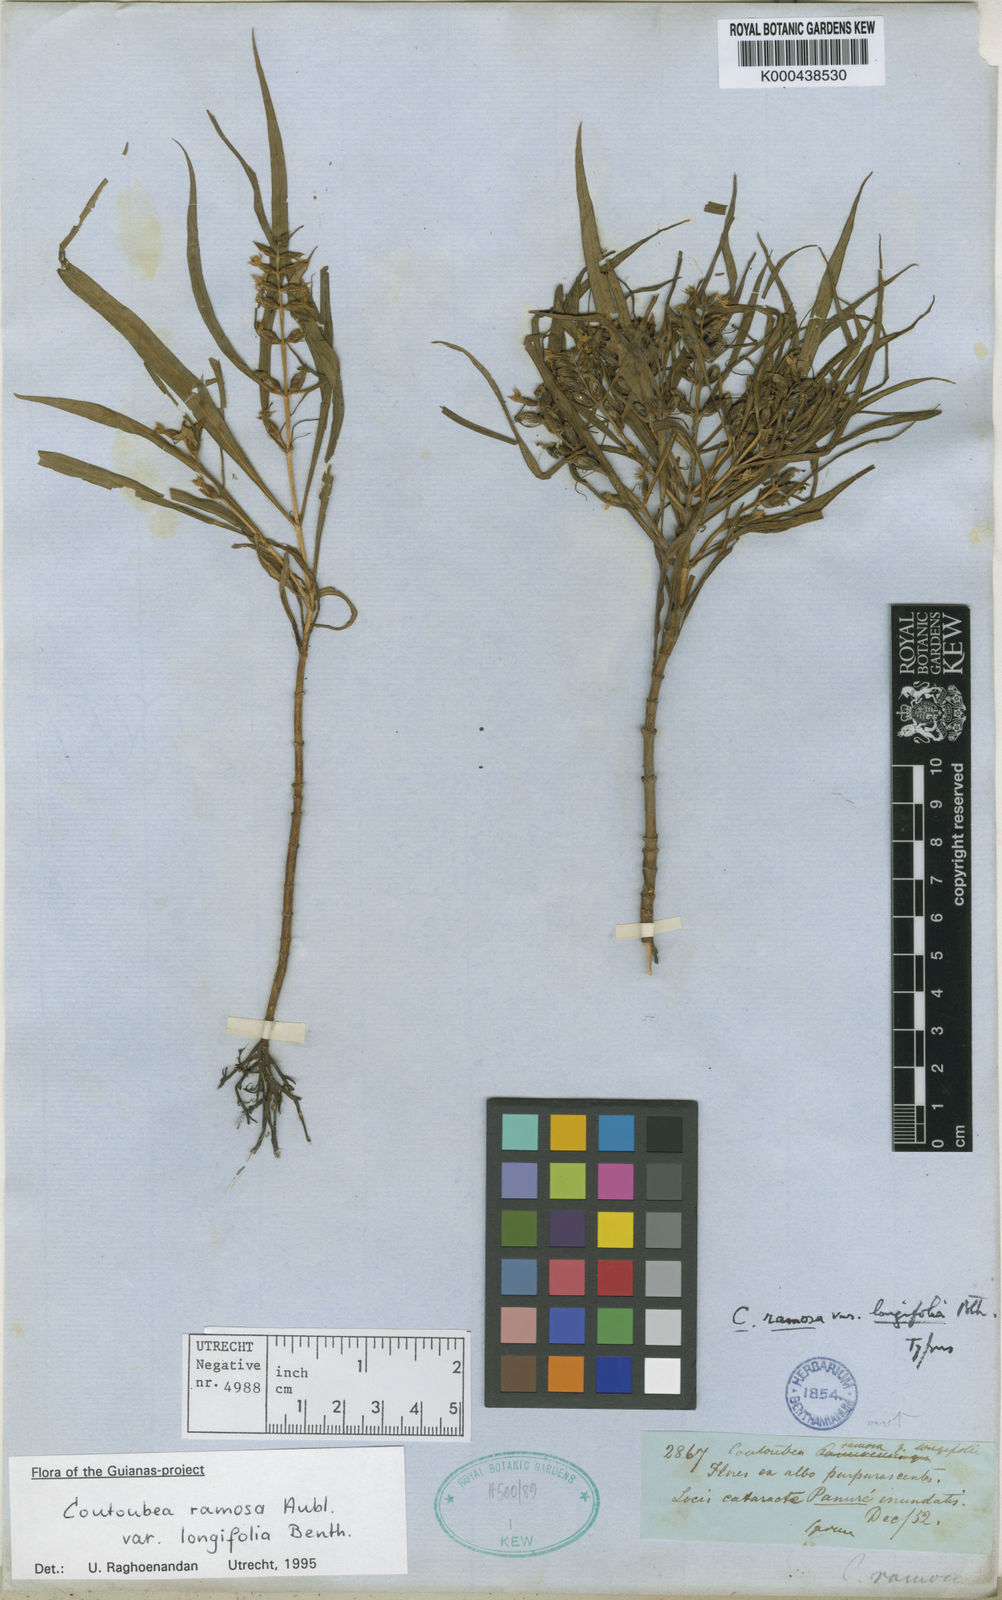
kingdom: Plantae
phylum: Tracheophyta
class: Magnoliopsida
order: Gentianales
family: Gentianaceae
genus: Coutoubea
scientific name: Coutoubea ramosa
